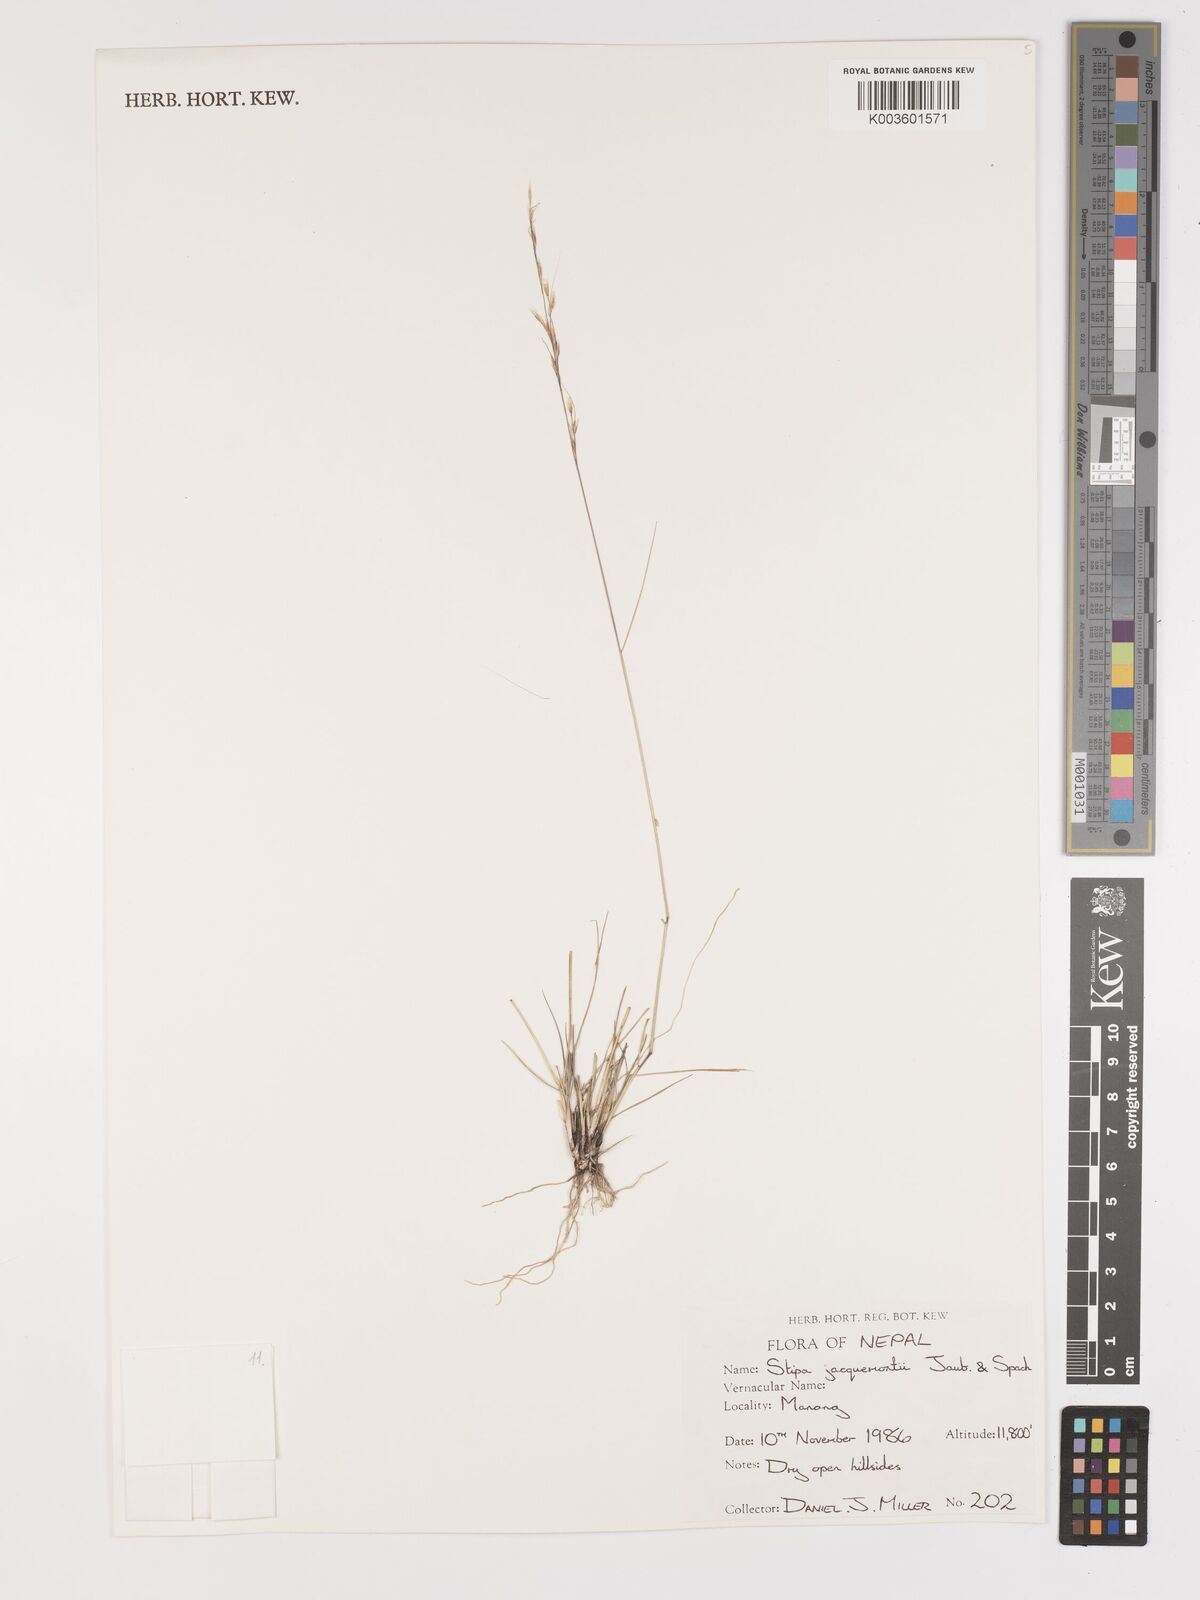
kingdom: Plantae
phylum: Tracheophyta
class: Liliopsida
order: Poales
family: Poaceae
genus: Achnatherum
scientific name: Achnatherum jacquemontii
